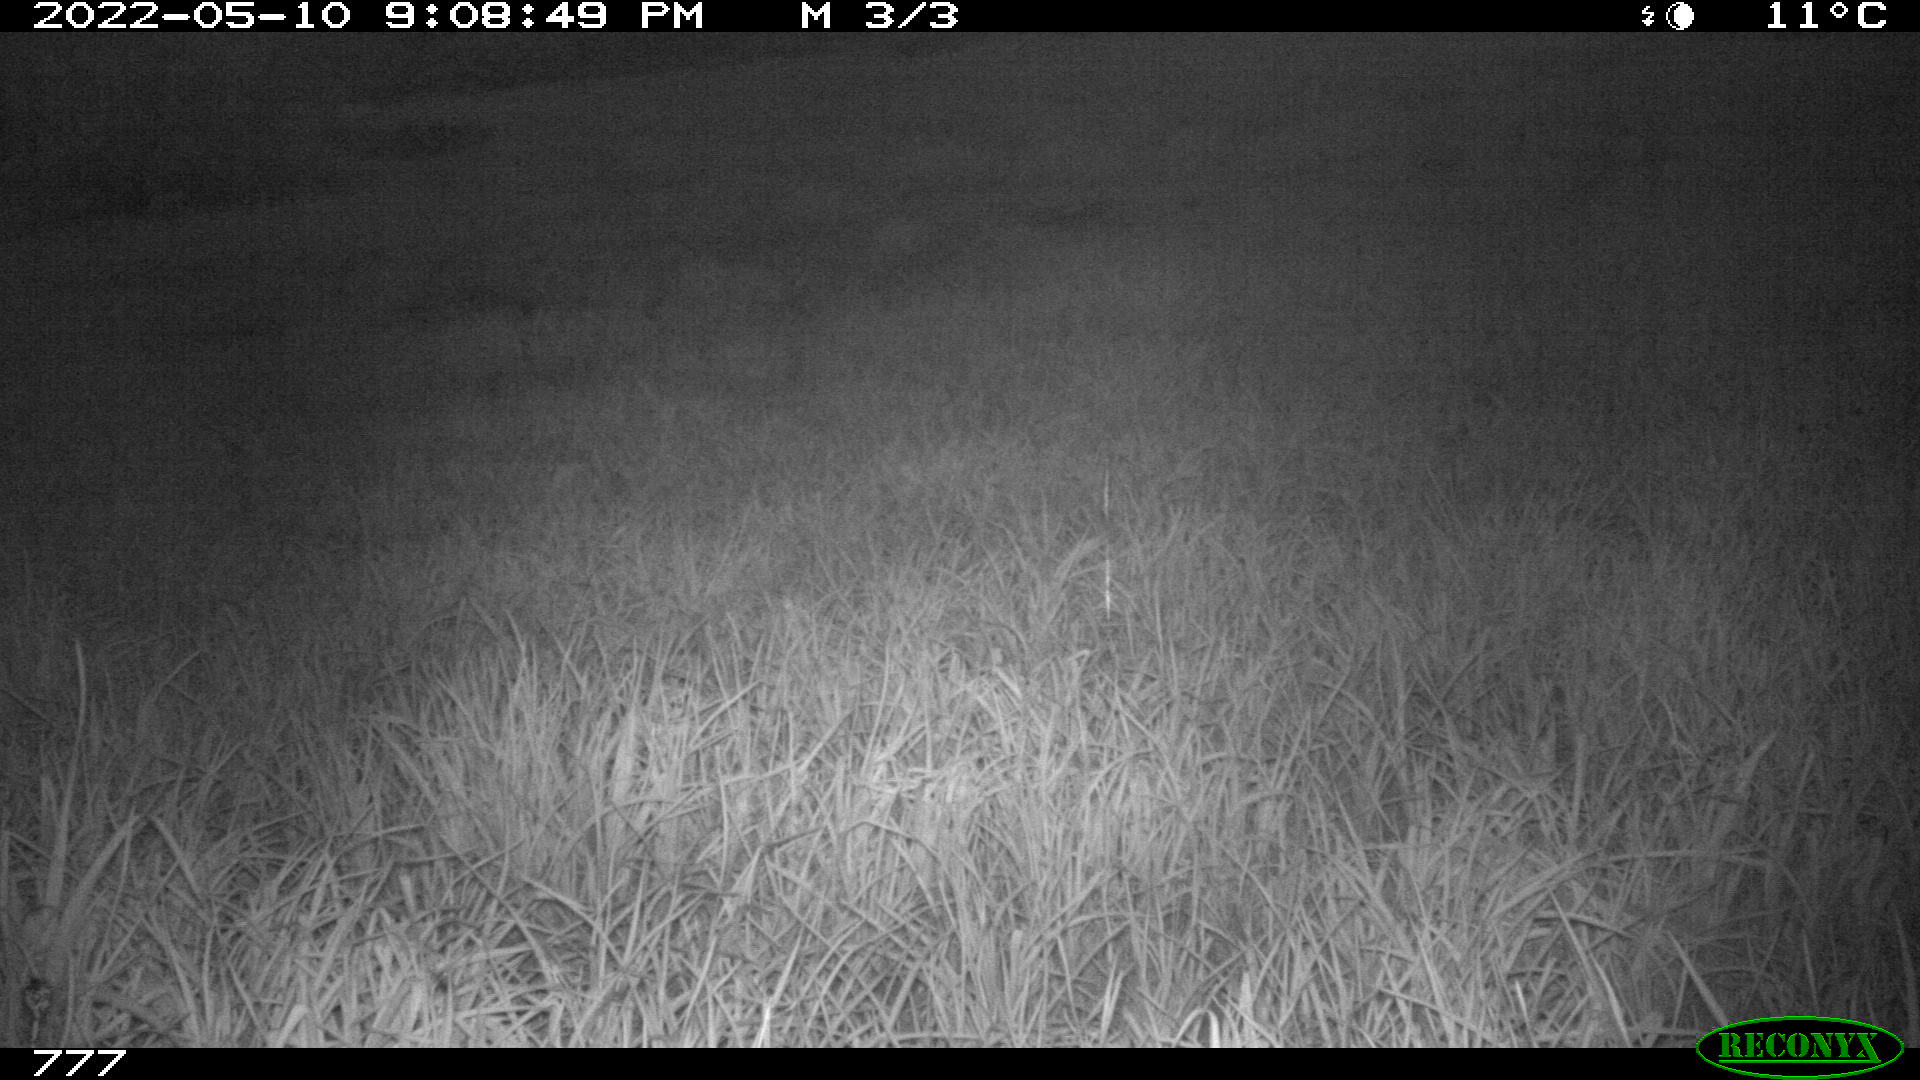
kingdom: Animalia
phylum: Chordata
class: Mammalia
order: Artiodactyla
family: Cervidae
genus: Capreolus
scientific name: Capreolus capreolus
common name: Western roe deer
